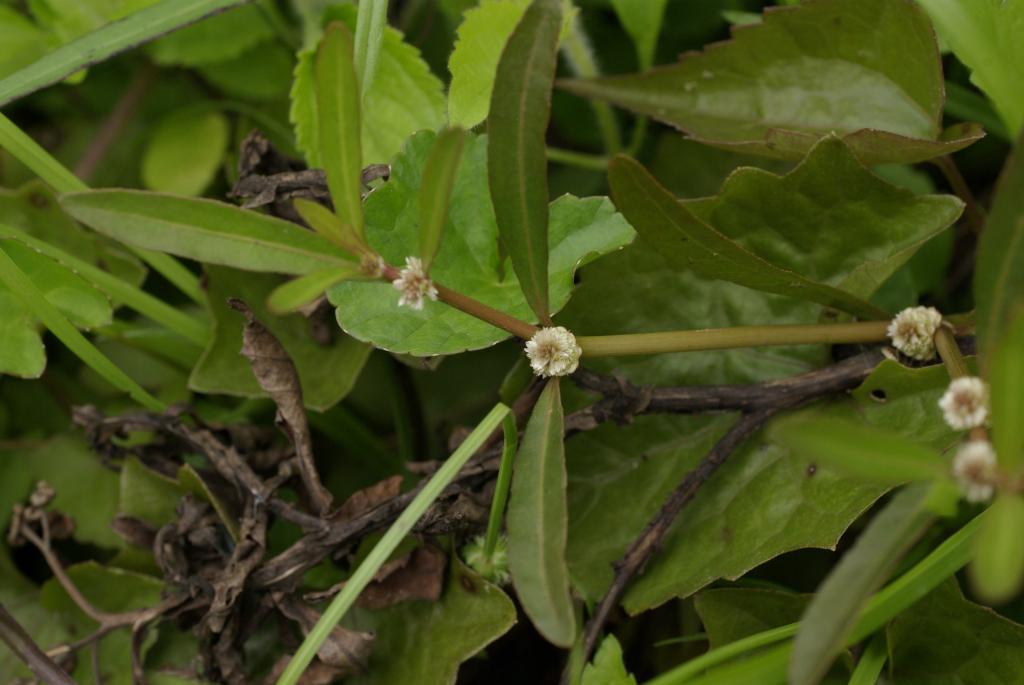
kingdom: Plantae
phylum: Tracheophyta
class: Magnoliopsida
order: Caryophyllales
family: Amaranthaceae
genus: Alternanthera
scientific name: Alternanthera sessilis
